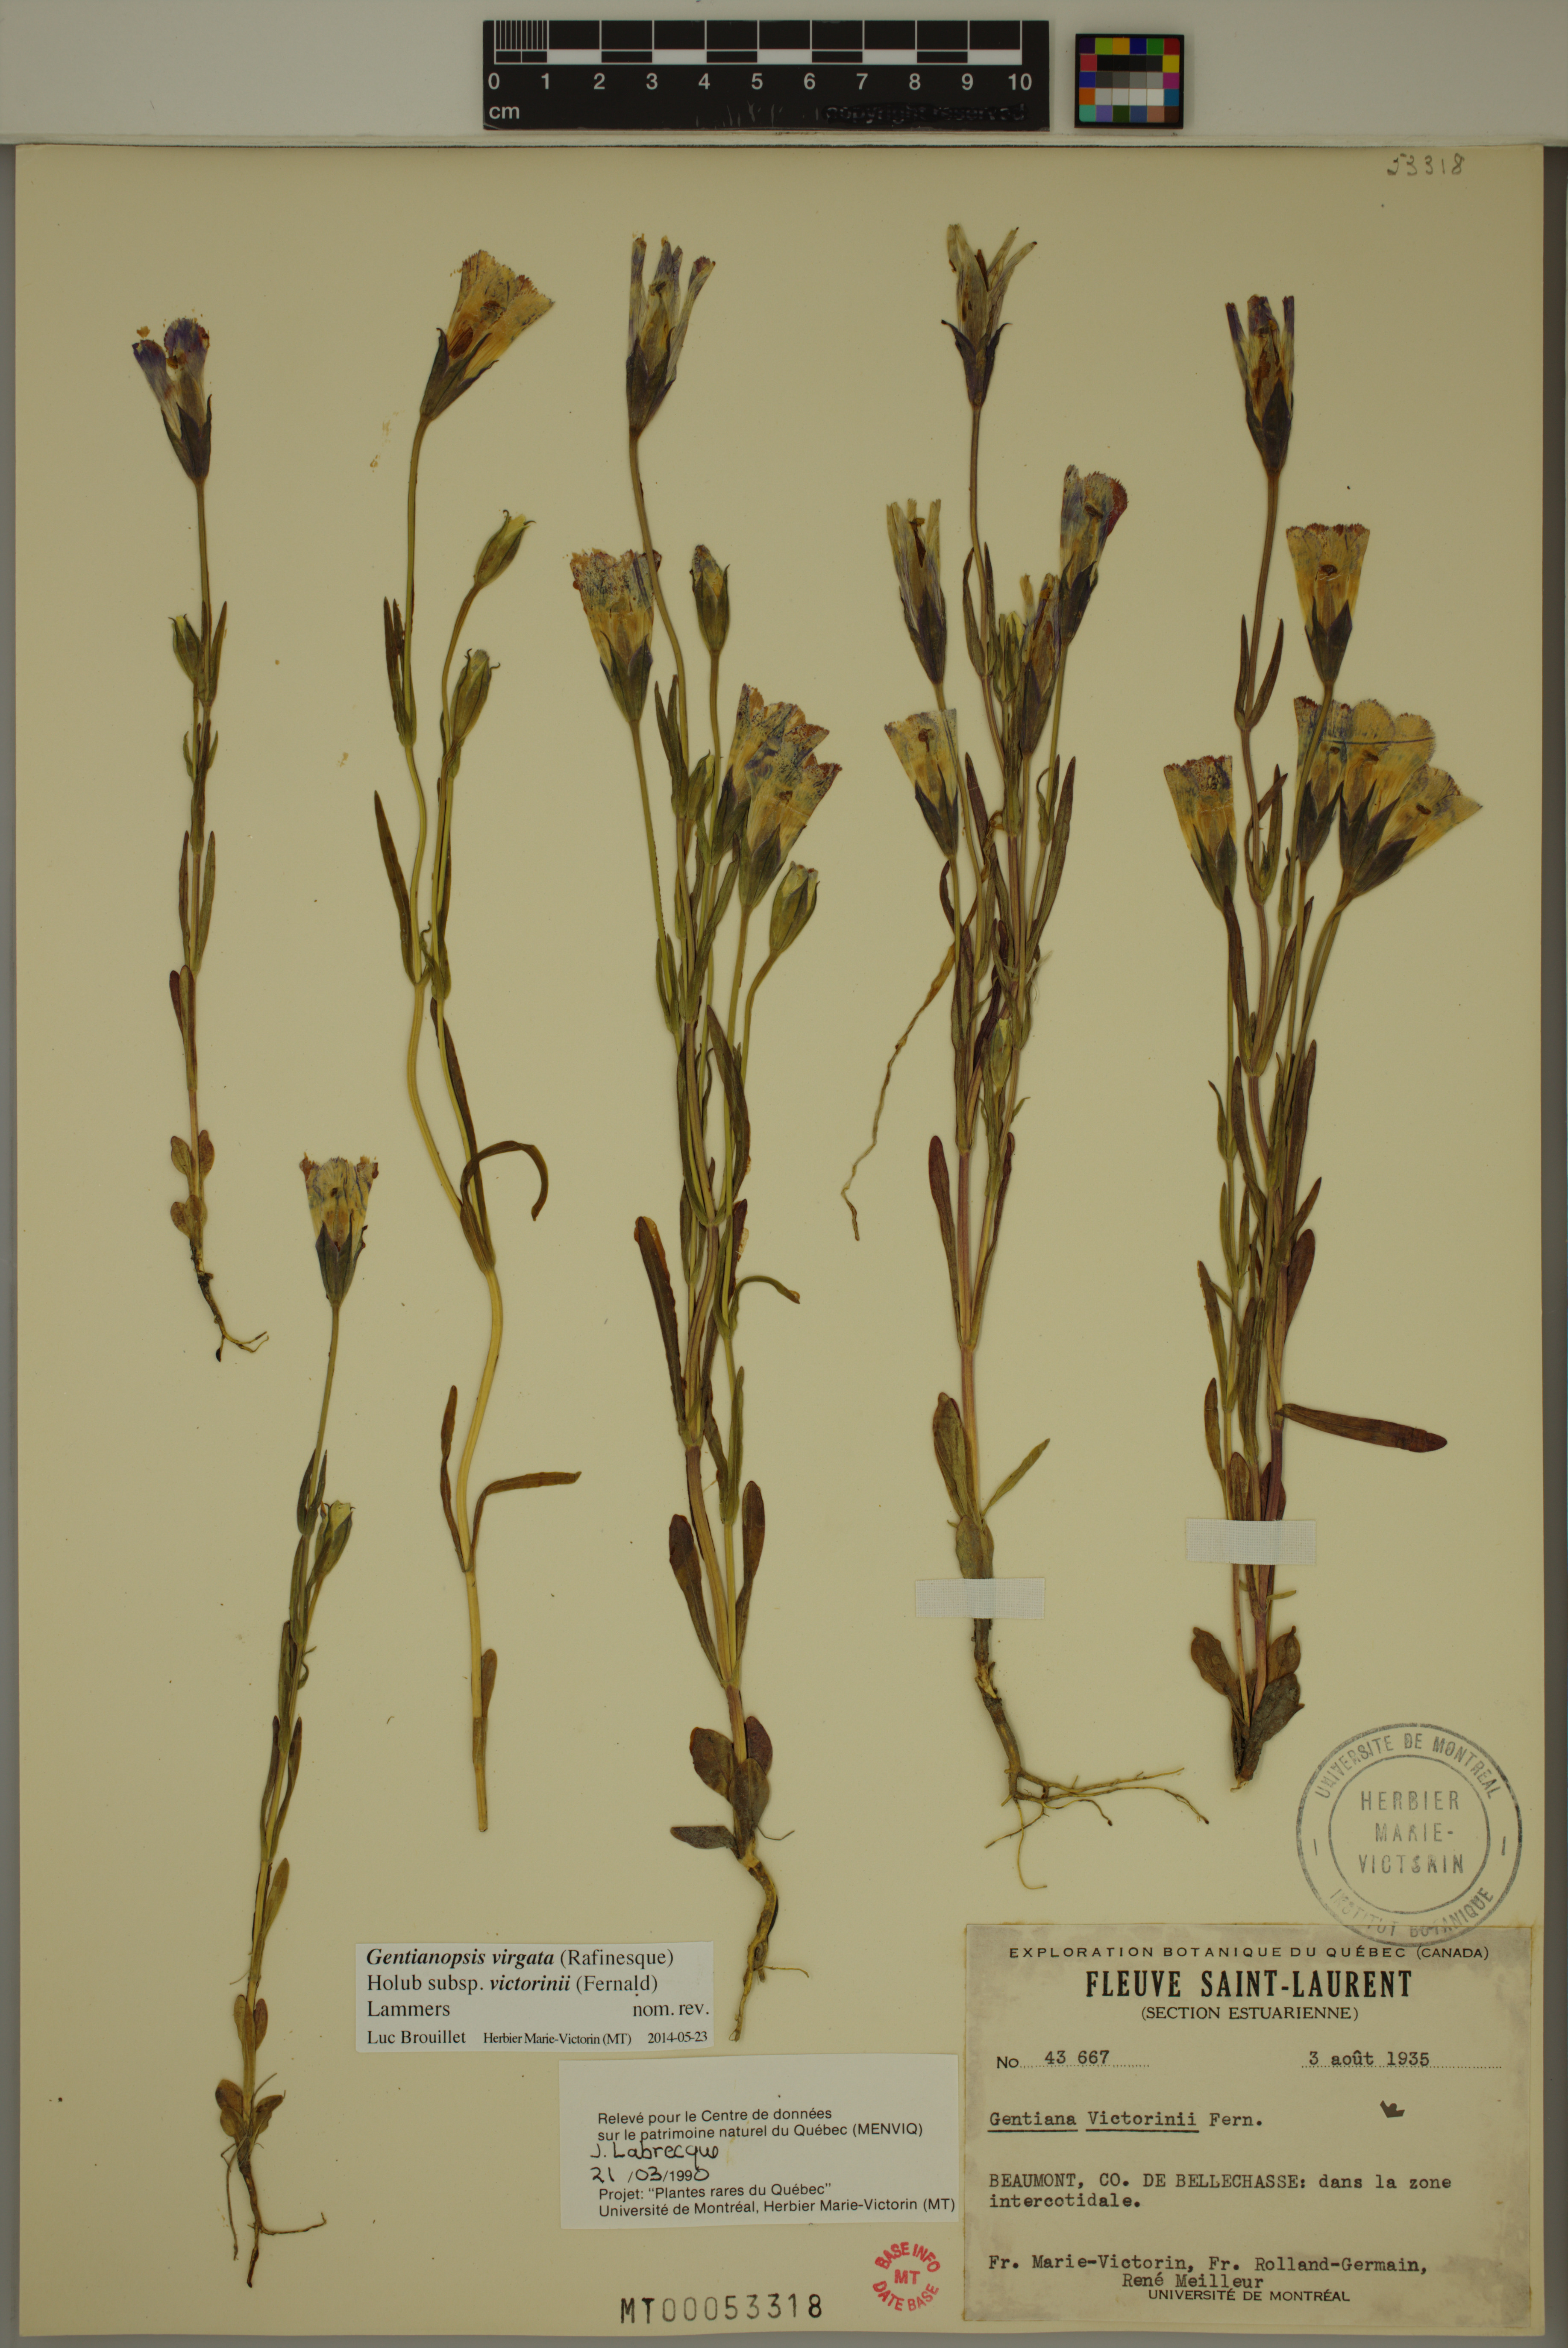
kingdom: Plantae
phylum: Tracheophyta
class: Magnoliopsida
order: Gentianales
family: Gentianaceae
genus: Gentianopsis
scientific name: Gentianopsis victorinii
